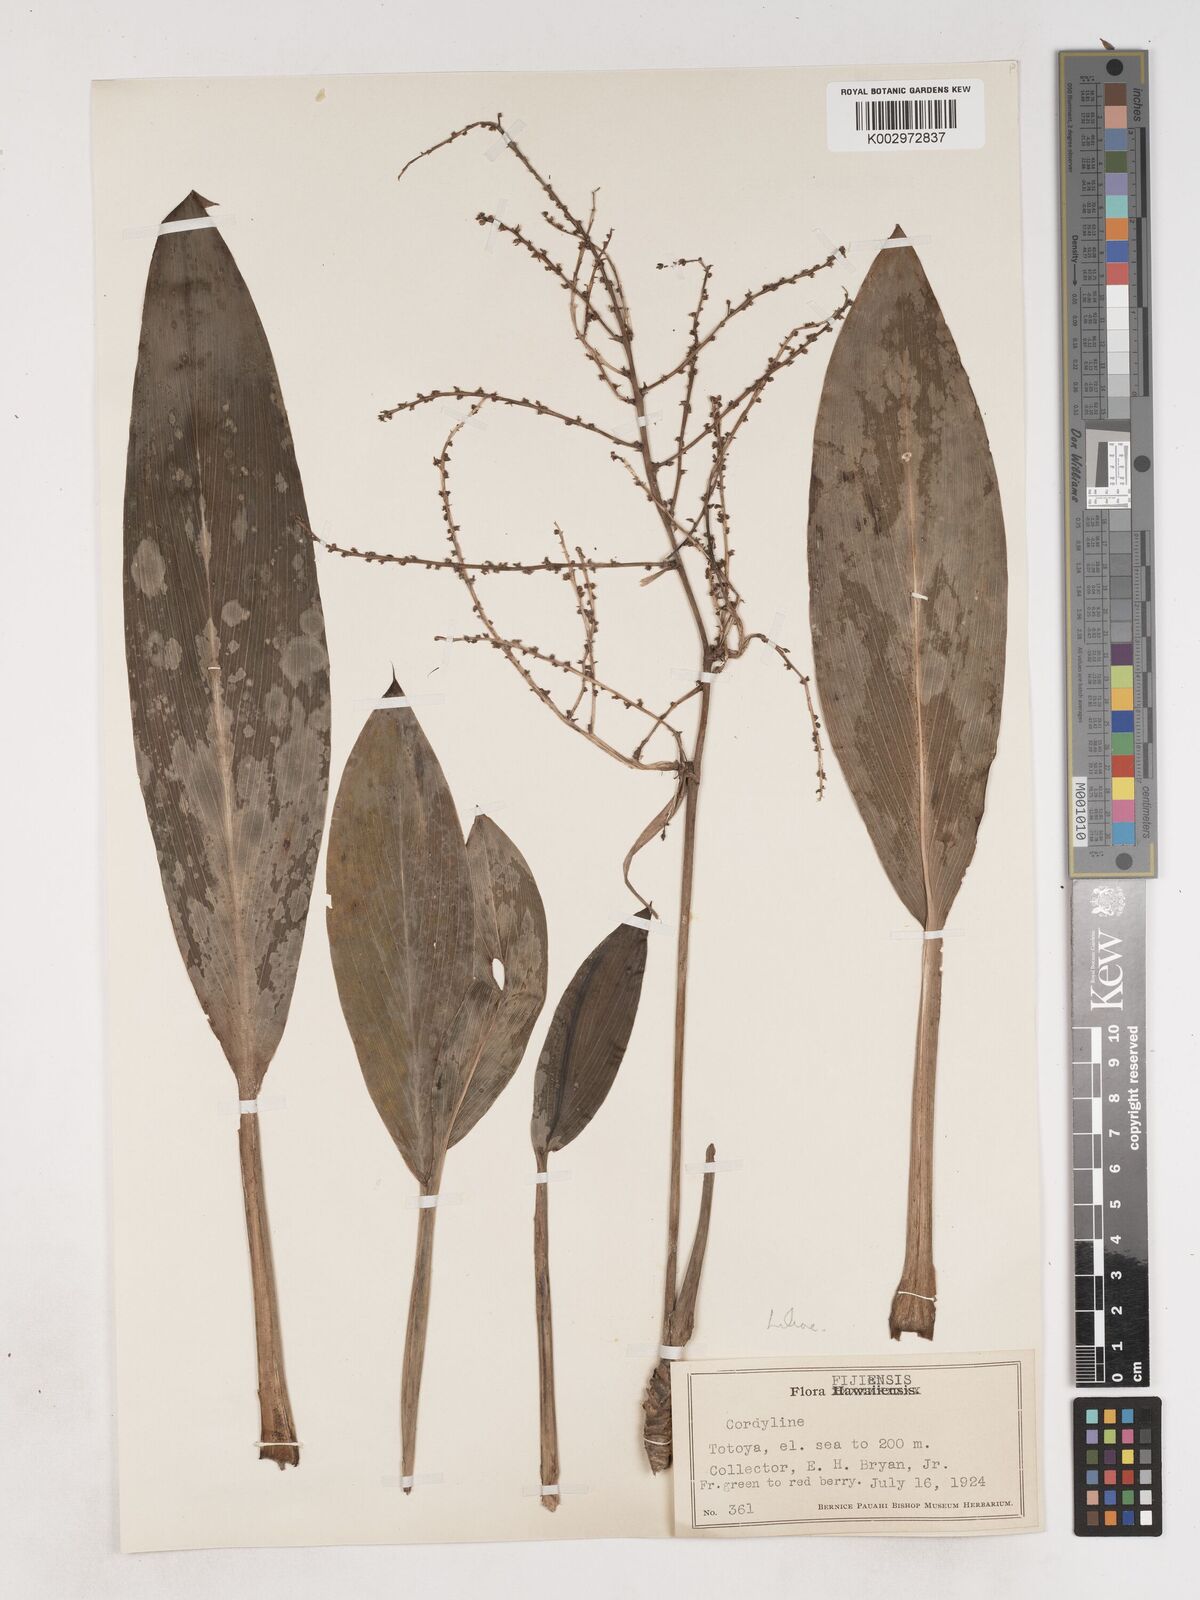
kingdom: Plantae
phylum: Tracheophyta
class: Liliopsida
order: Asparagales
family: Asparagaceae
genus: Cordyline
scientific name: Cordyline
